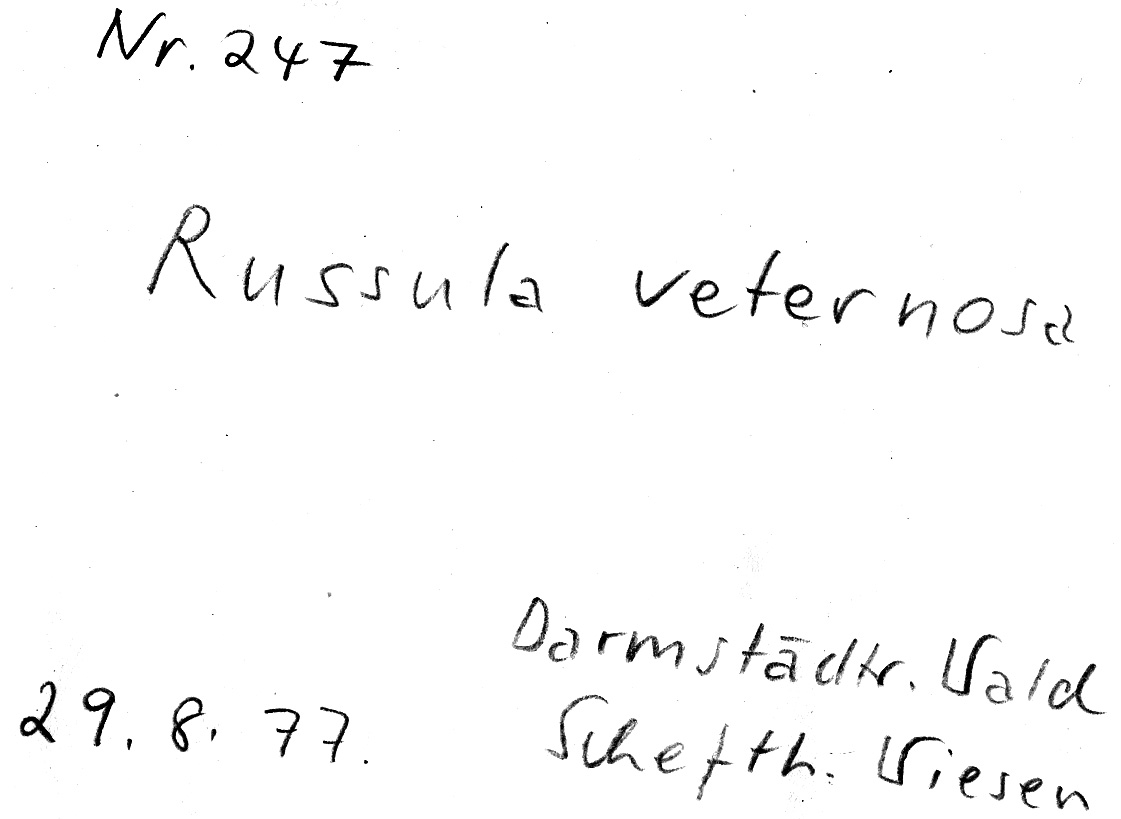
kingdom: Fungi
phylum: Basidiomycota
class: Agaricomycetes
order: Russulales
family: Russulaceae
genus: Russula
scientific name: Russula veternosa
